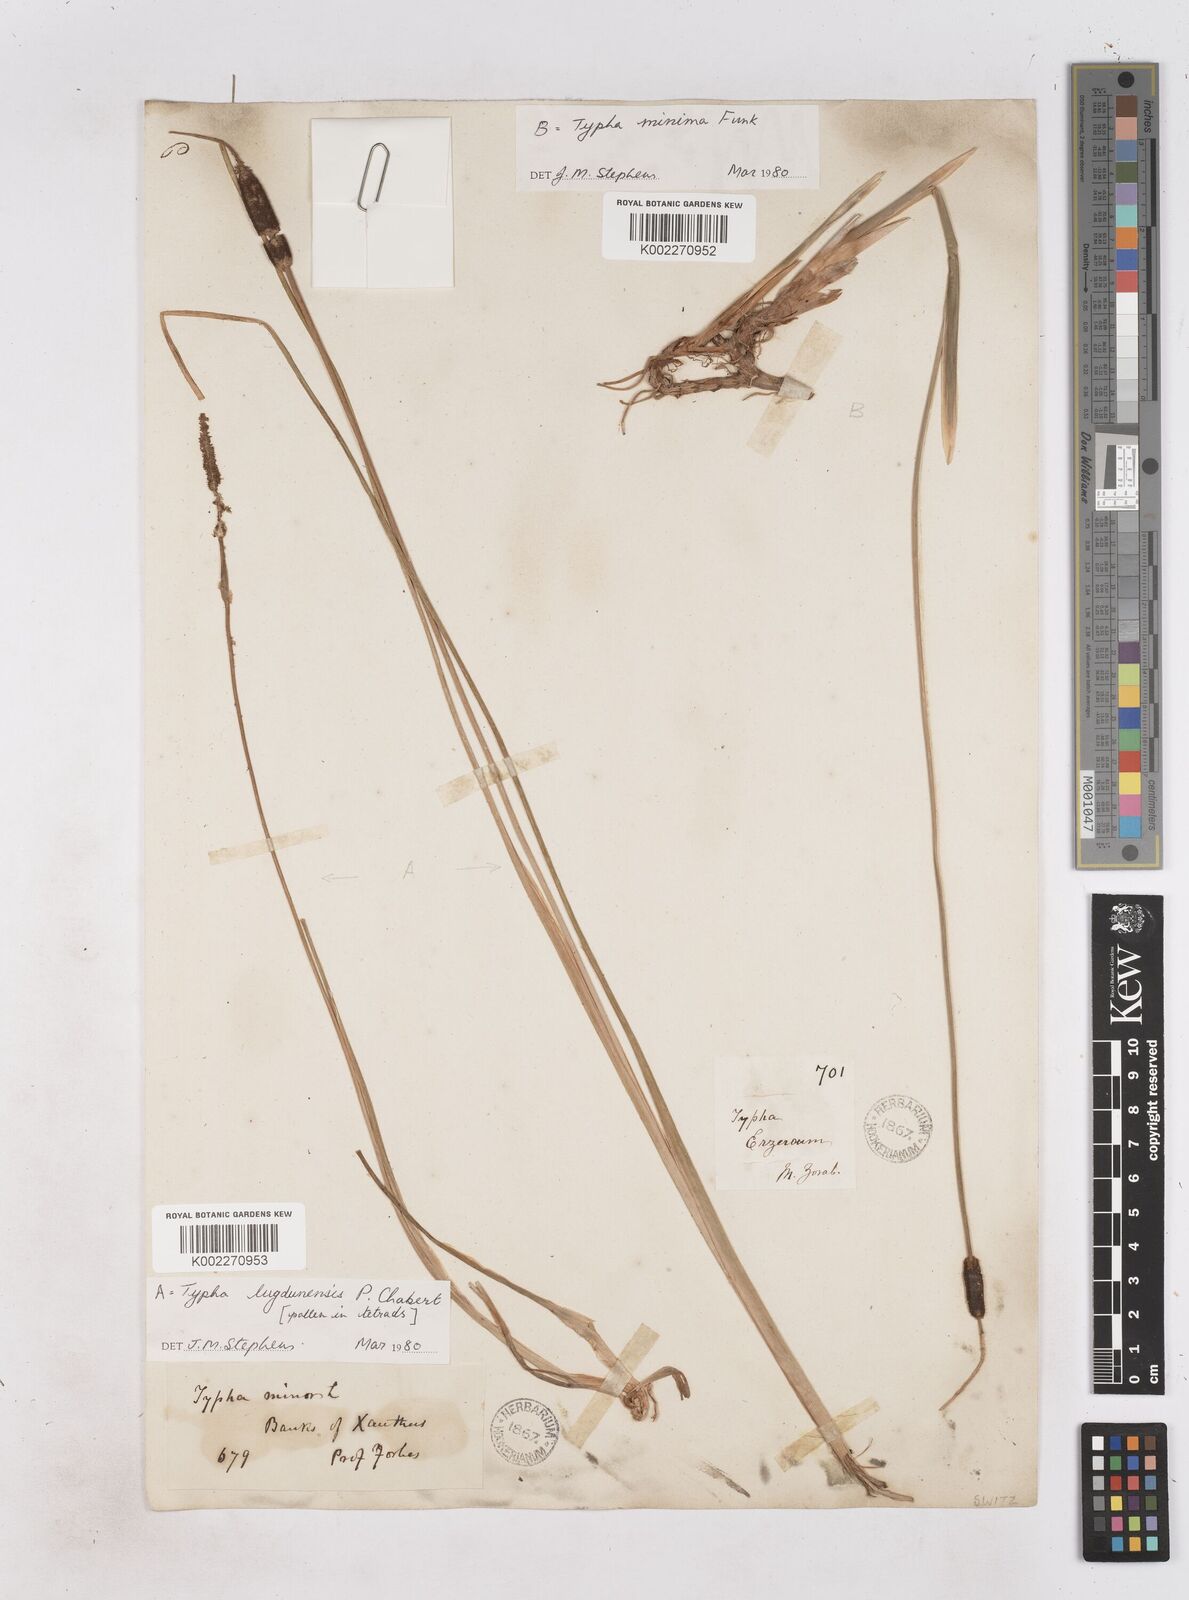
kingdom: Plantae
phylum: Tracheophyta
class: Liliopsida
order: Poales
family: Typhaceae
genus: Typha
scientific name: Typha lugdunensis
